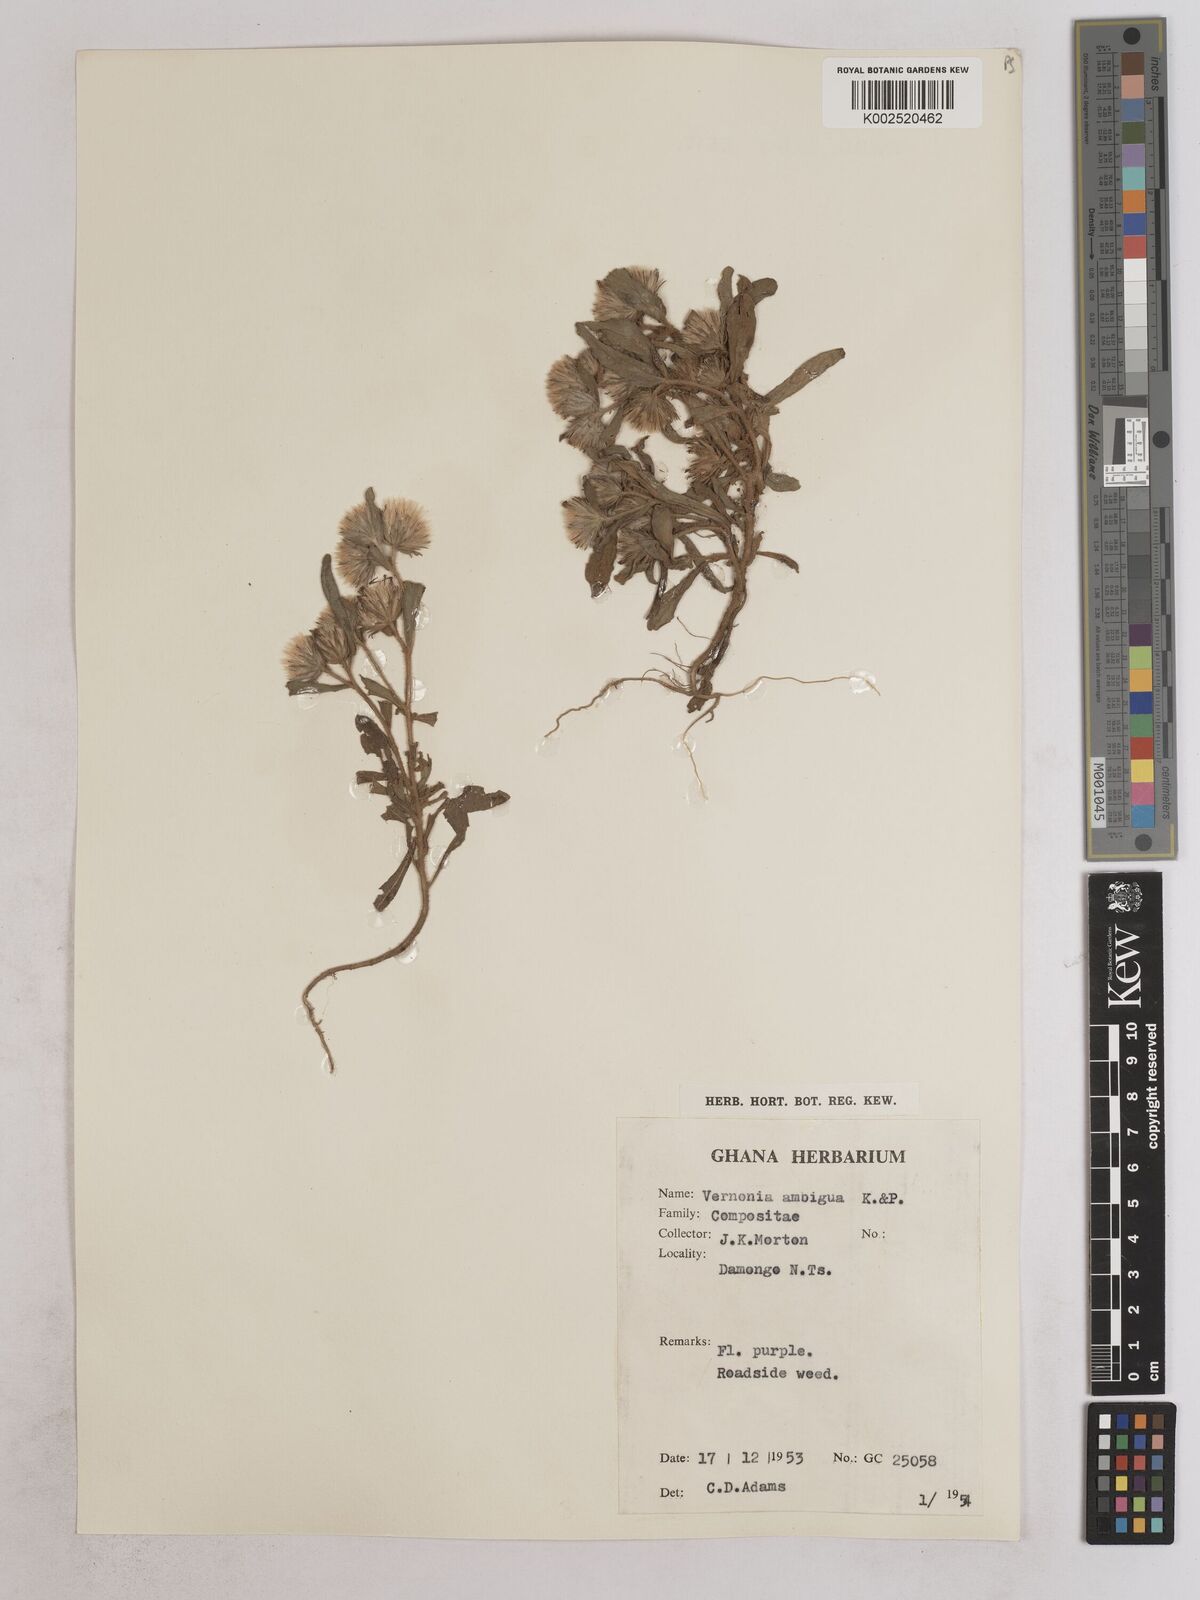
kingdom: Plantae
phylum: Tracheophyta
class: Magnoliopsida
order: Asterales
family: Asteraceae
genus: Vernoniastrum
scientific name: Vernoniastrum ambiguum
